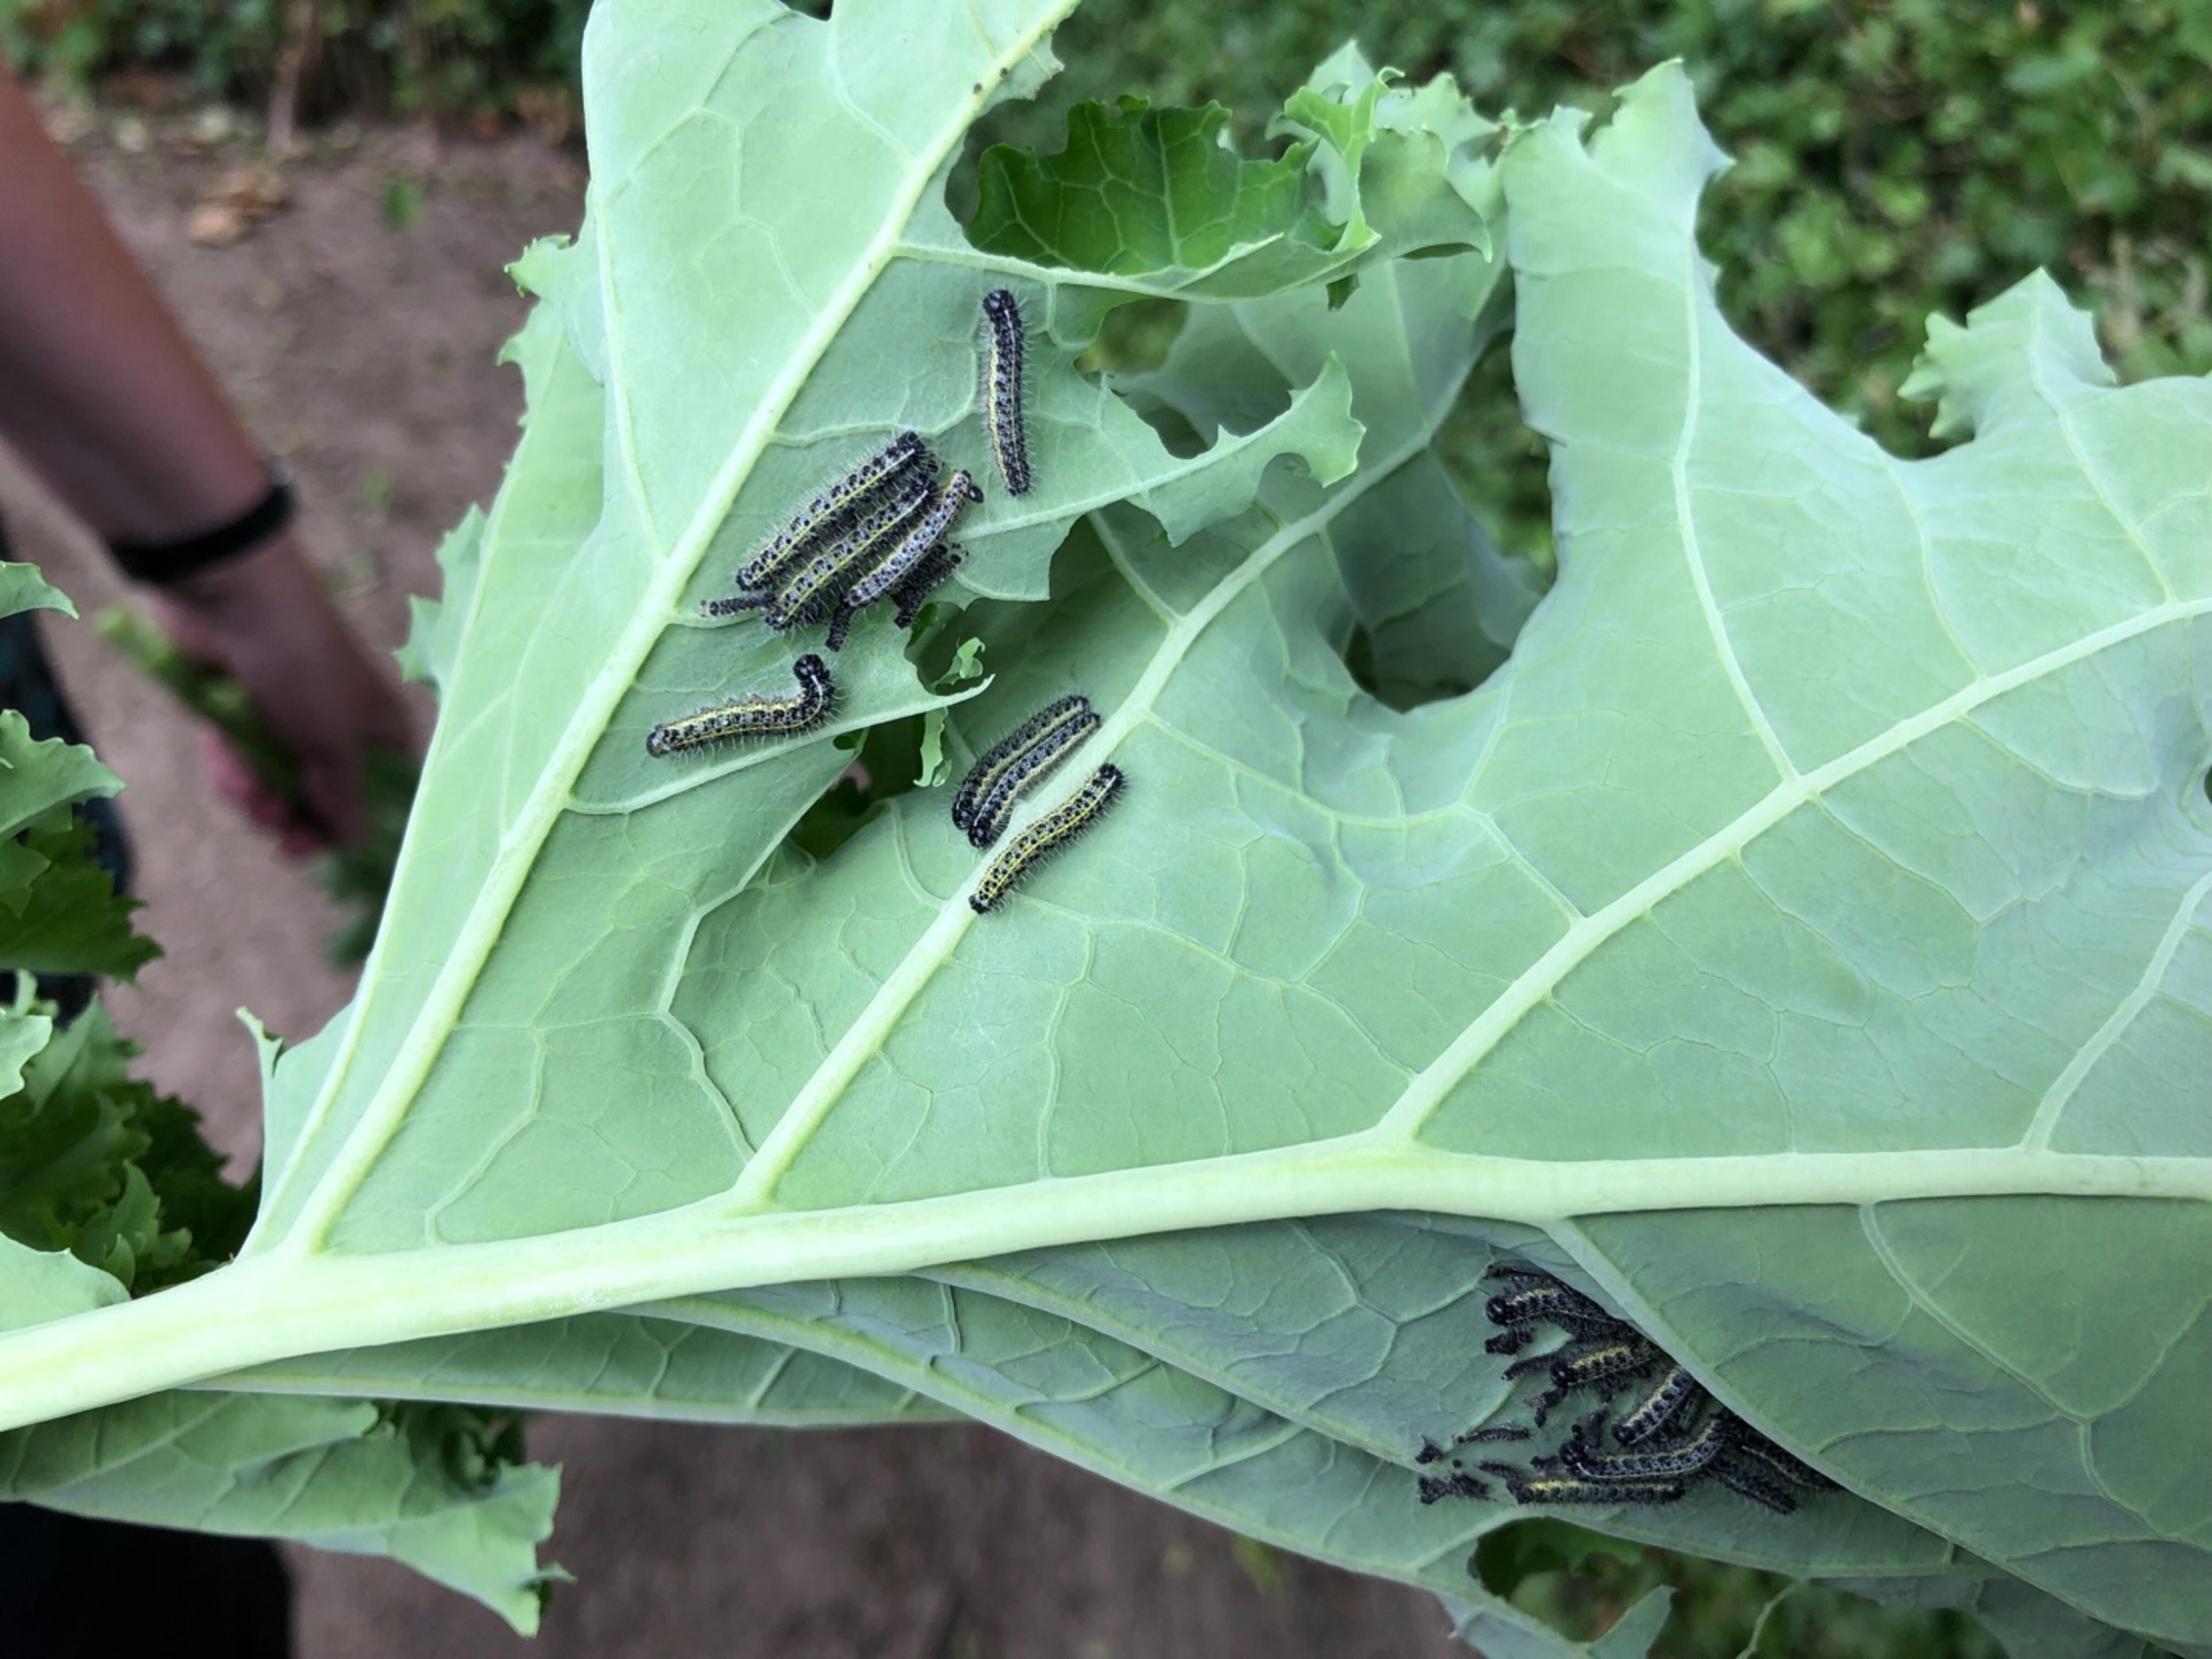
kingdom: Animalia
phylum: Arthropoda
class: Insecta
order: Lepidoptera
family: Pieridae
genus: Pieris
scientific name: Pieris brassicae
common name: Stor kålsommerfugl
